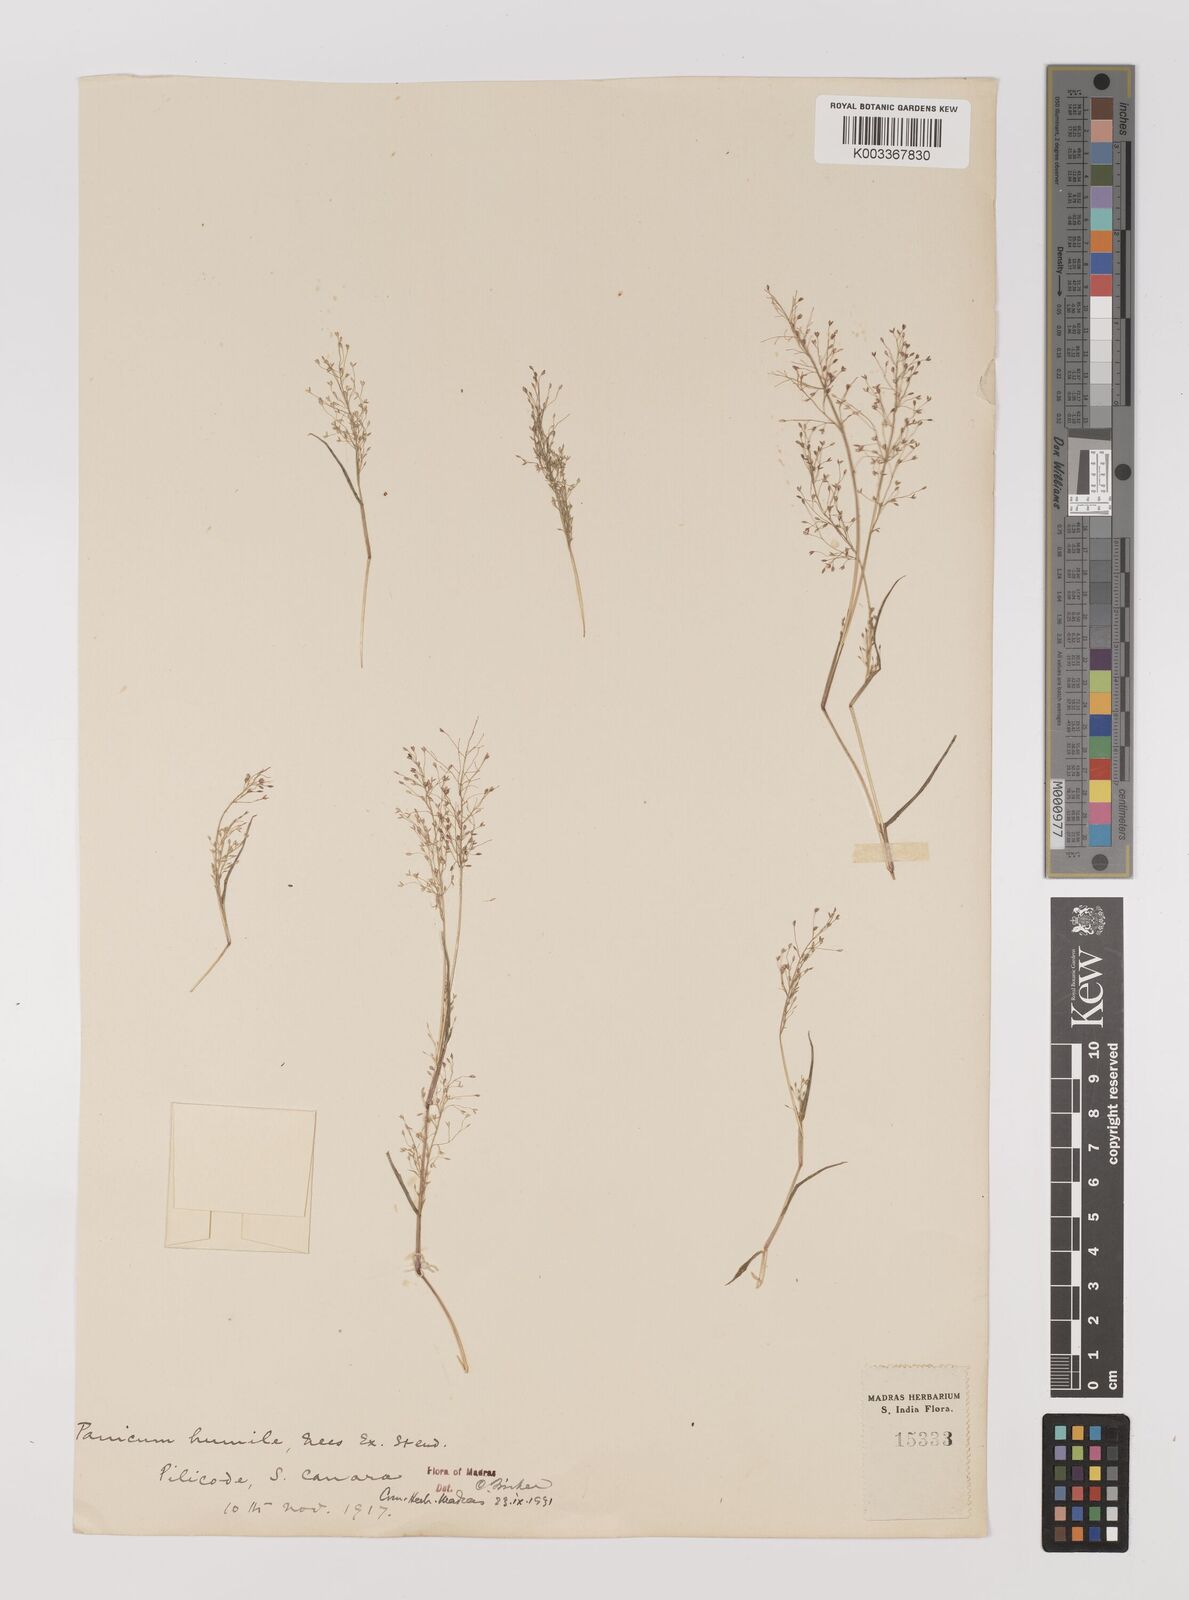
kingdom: Plantae
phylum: Tracheophyta
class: Liliopsida
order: Poales
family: Poaceae
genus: Panicum
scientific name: Panicum humile
